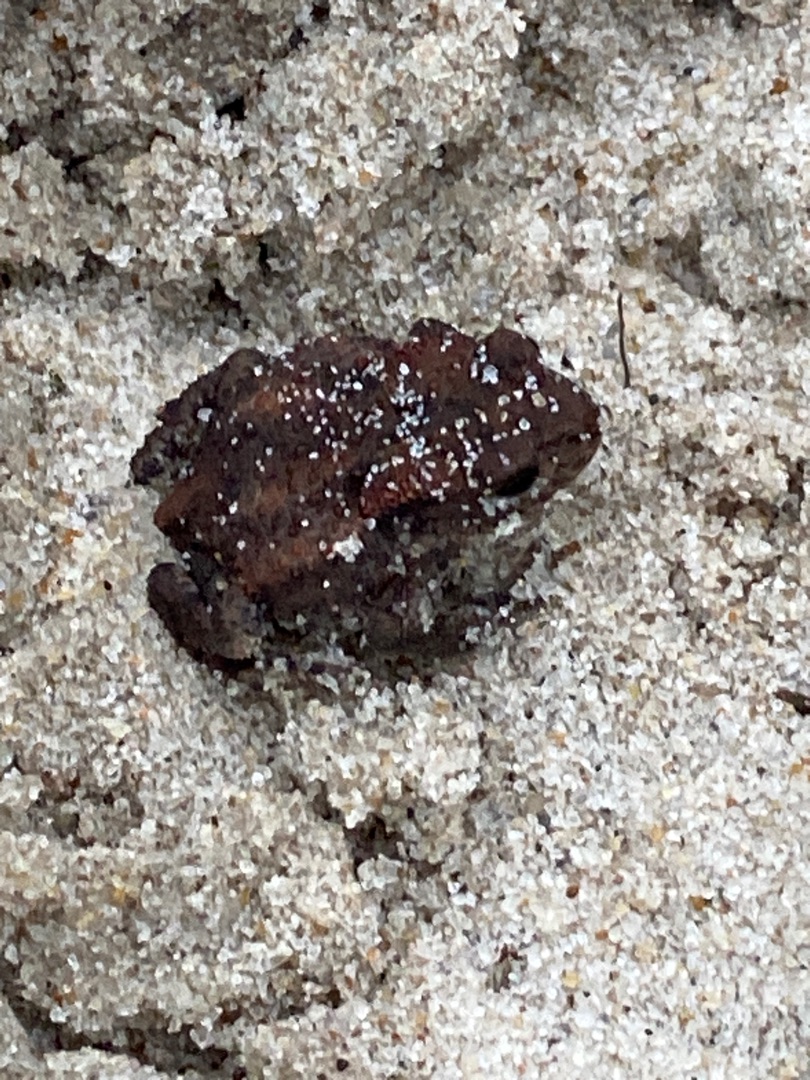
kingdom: Animalia
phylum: Chordata
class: Amphibia
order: Anura
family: Bufonidae
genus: Bufo
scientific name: Bufo bufo
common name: Skrubtudse
